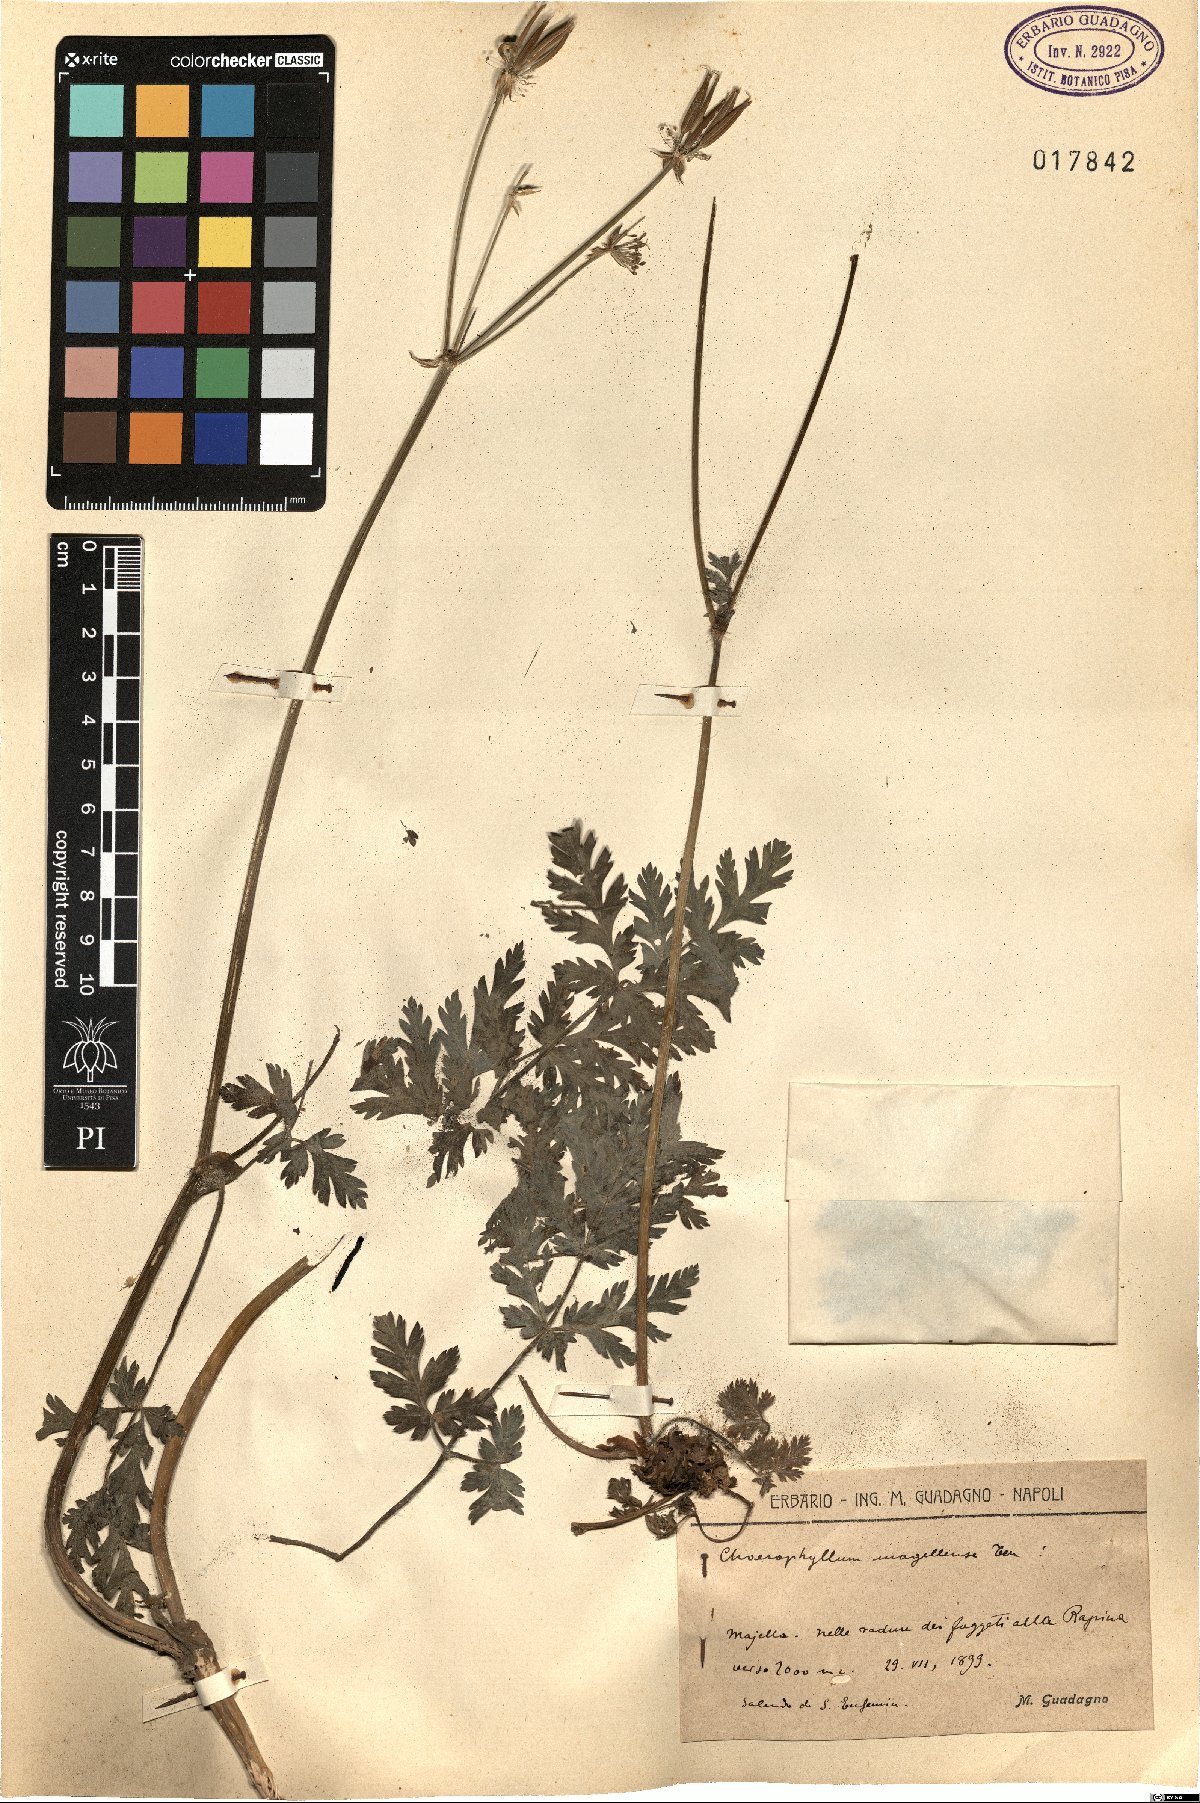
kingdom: Plantae
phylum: Tracheophyta
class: Magnoliopsida
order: Apiales
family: Apiaceae
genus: Chaerophyllum
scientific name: Chaerophyllum hirsutum
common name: Hairy chervil
